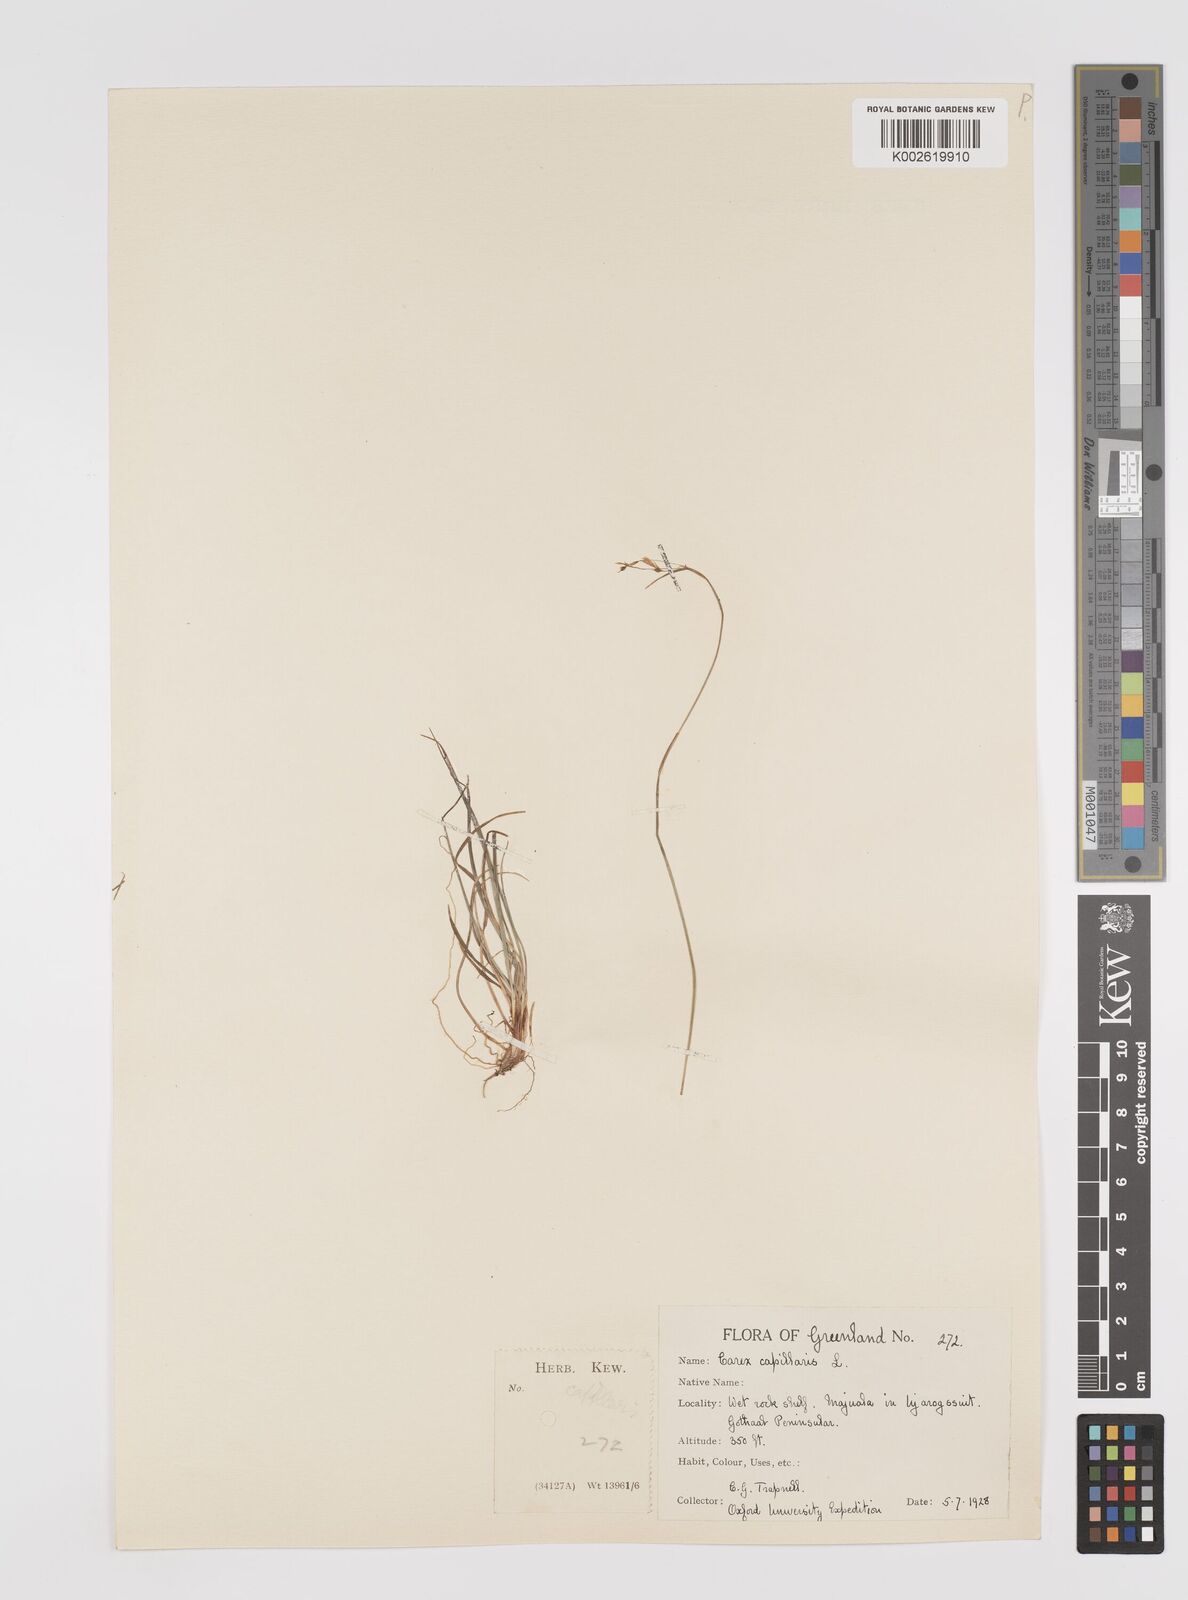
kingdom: Plantae
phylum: Tracheophyta
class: Liliopsida
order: Poales
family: Cyperaceae
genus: Carex
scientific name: Carex capillaris
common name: Hair sedge
